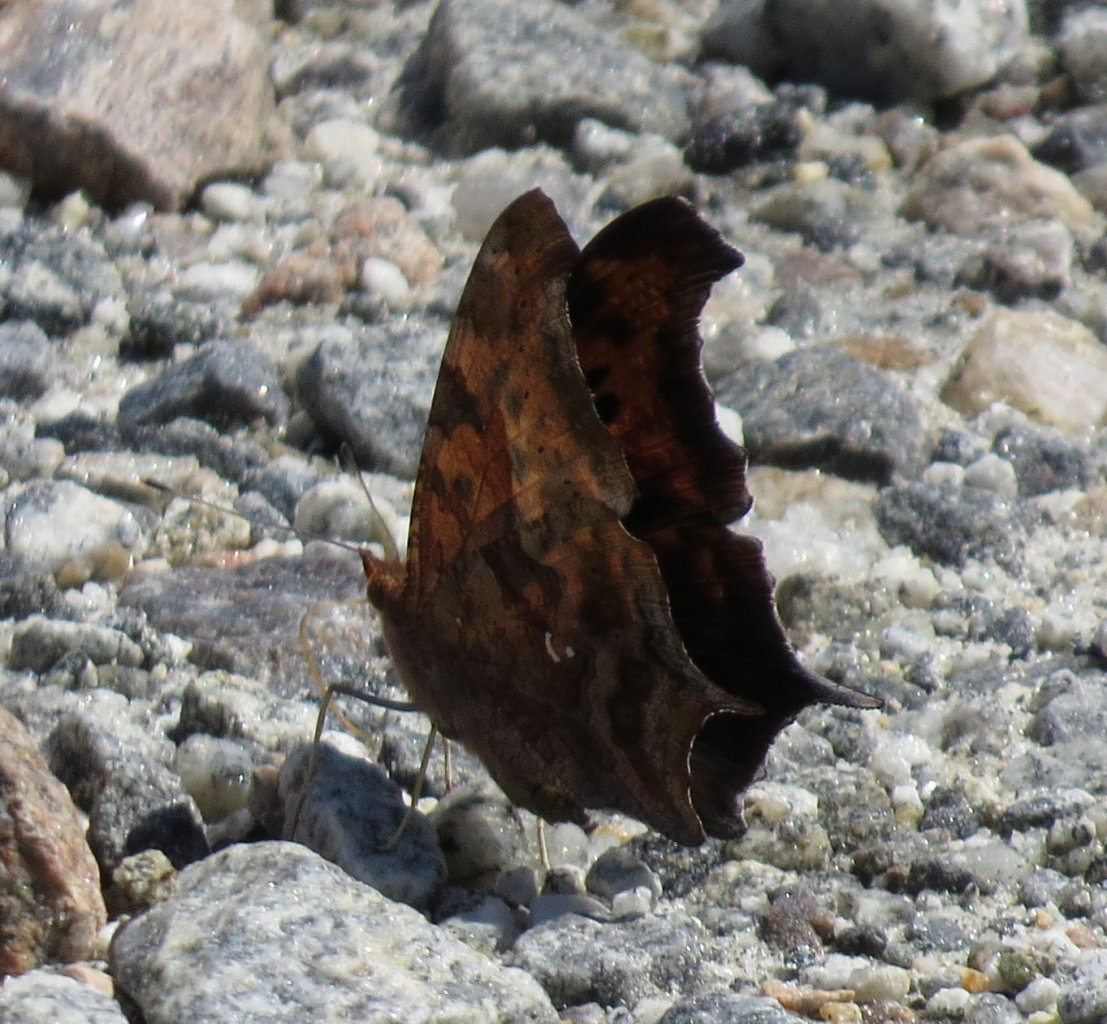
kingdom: Animalia
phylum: Arthropoda
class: Insecta
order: Lepidoptera
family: Nymphalidae
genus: Polygonia
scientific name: Polygonia interrogationis
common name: Question Mark
